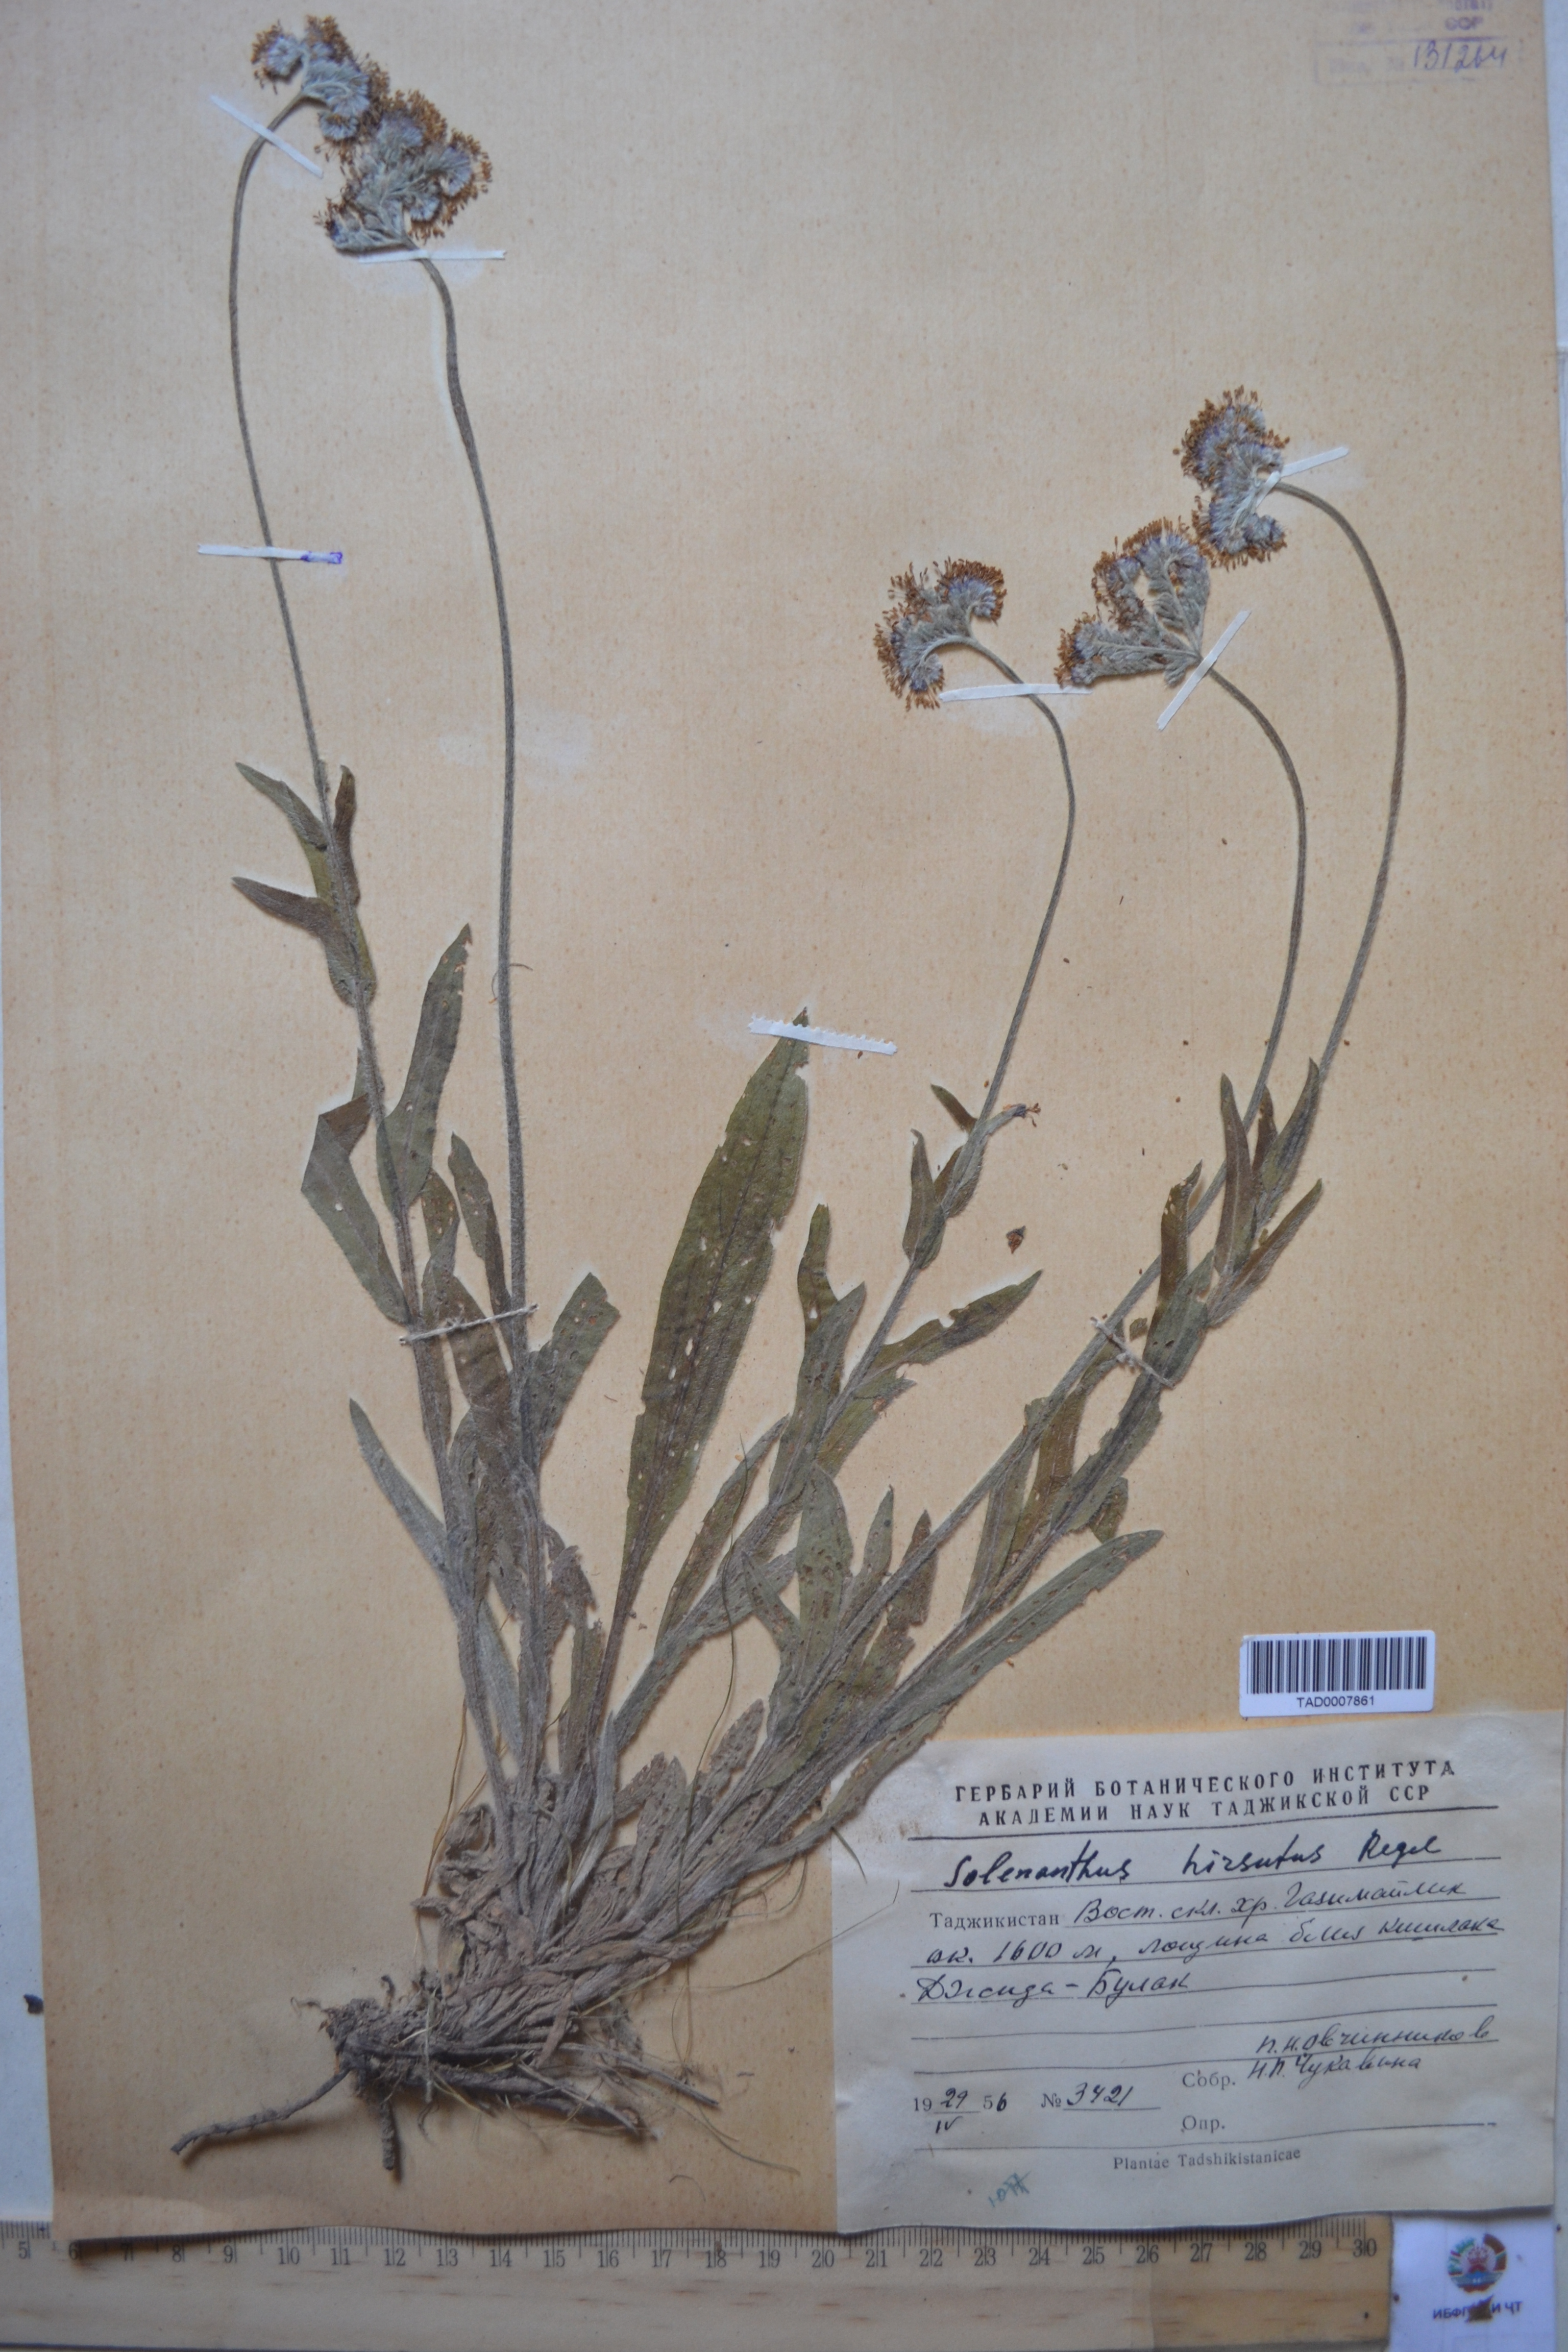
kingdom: Plantae
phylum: Tracheophyta
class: Magnoliopsida
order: Boraginales
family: Boraginaceae
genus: Solenanthus
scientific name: Solenanthus hirsutus
